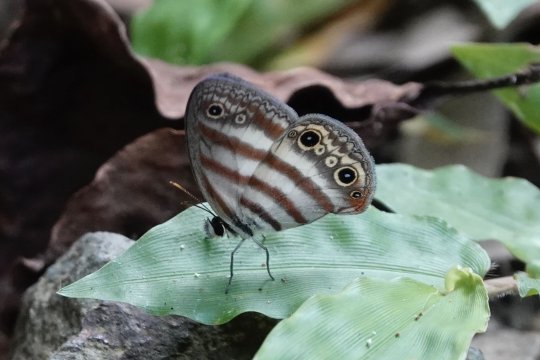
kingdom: Animalia
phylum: Arthropoda
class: Insecta
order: Lepidoptera
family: Nymphalidae
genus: Euptychia
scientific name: Euptychia mollina
